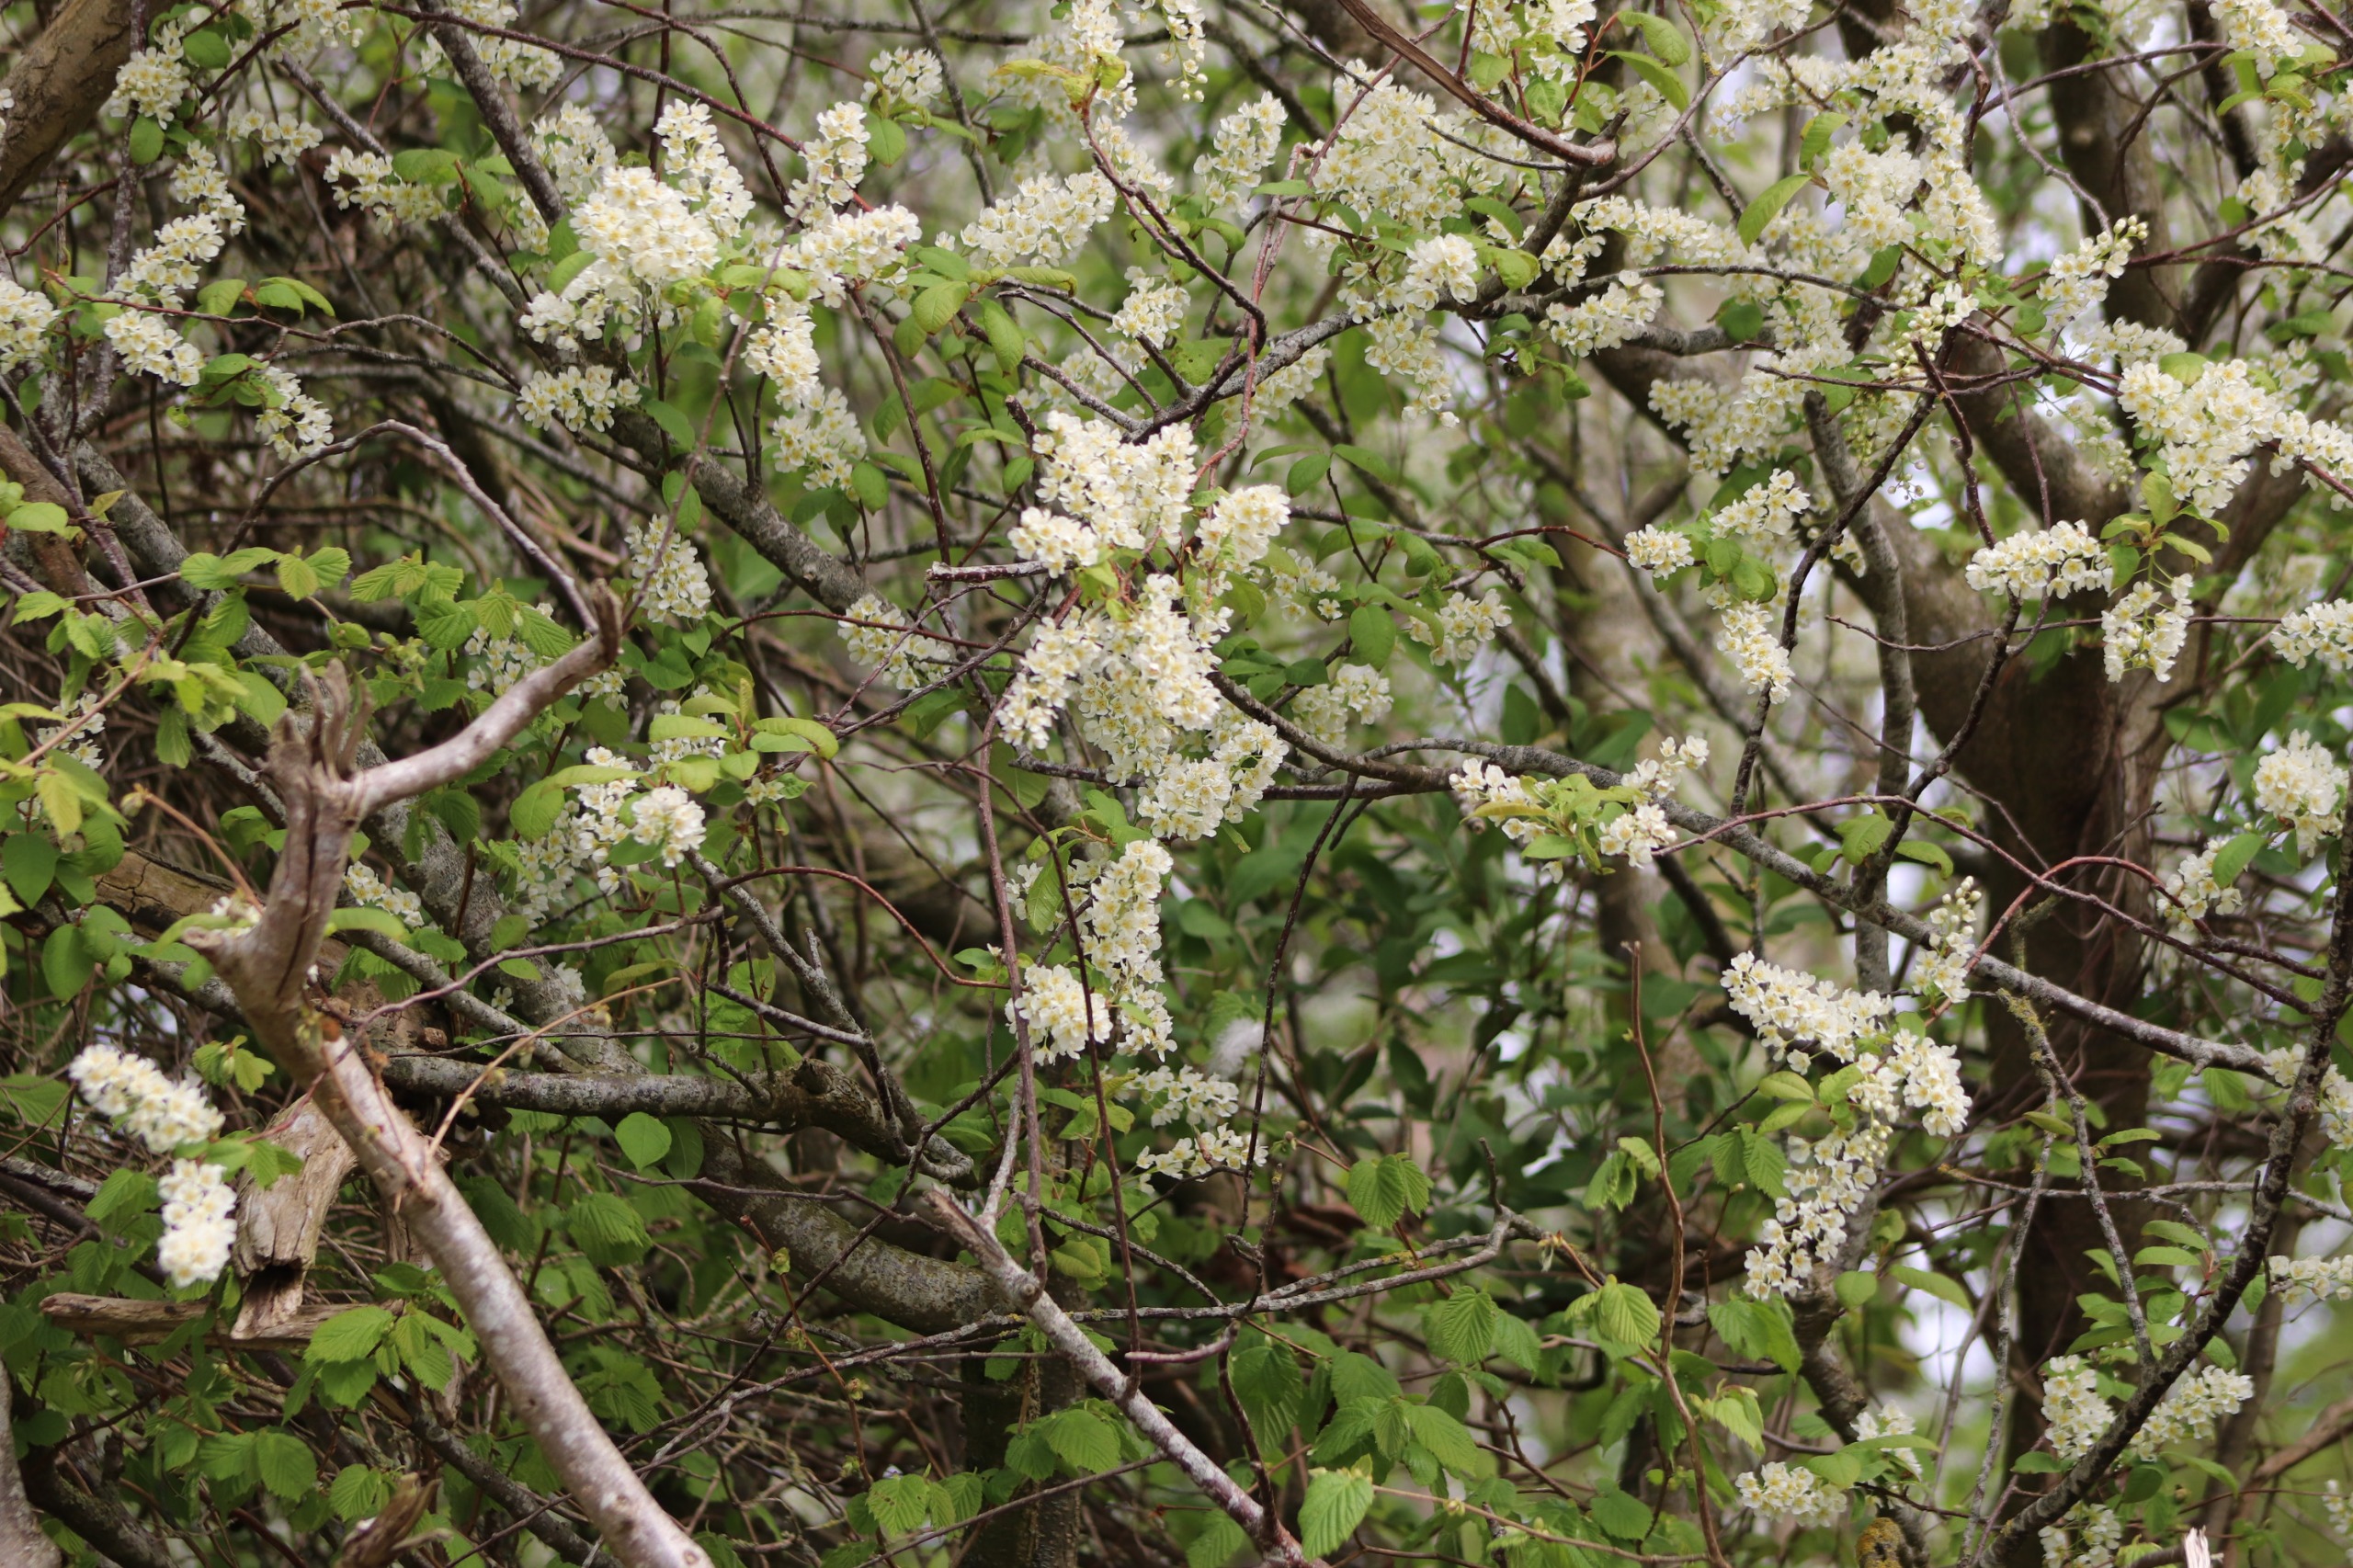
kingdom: Plantae
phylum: Tracheophyta
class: Magnoliopsida
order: Rosales
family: Rosaceae
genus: Prunus
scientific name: Prunus padus
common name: Almindelig hæg
